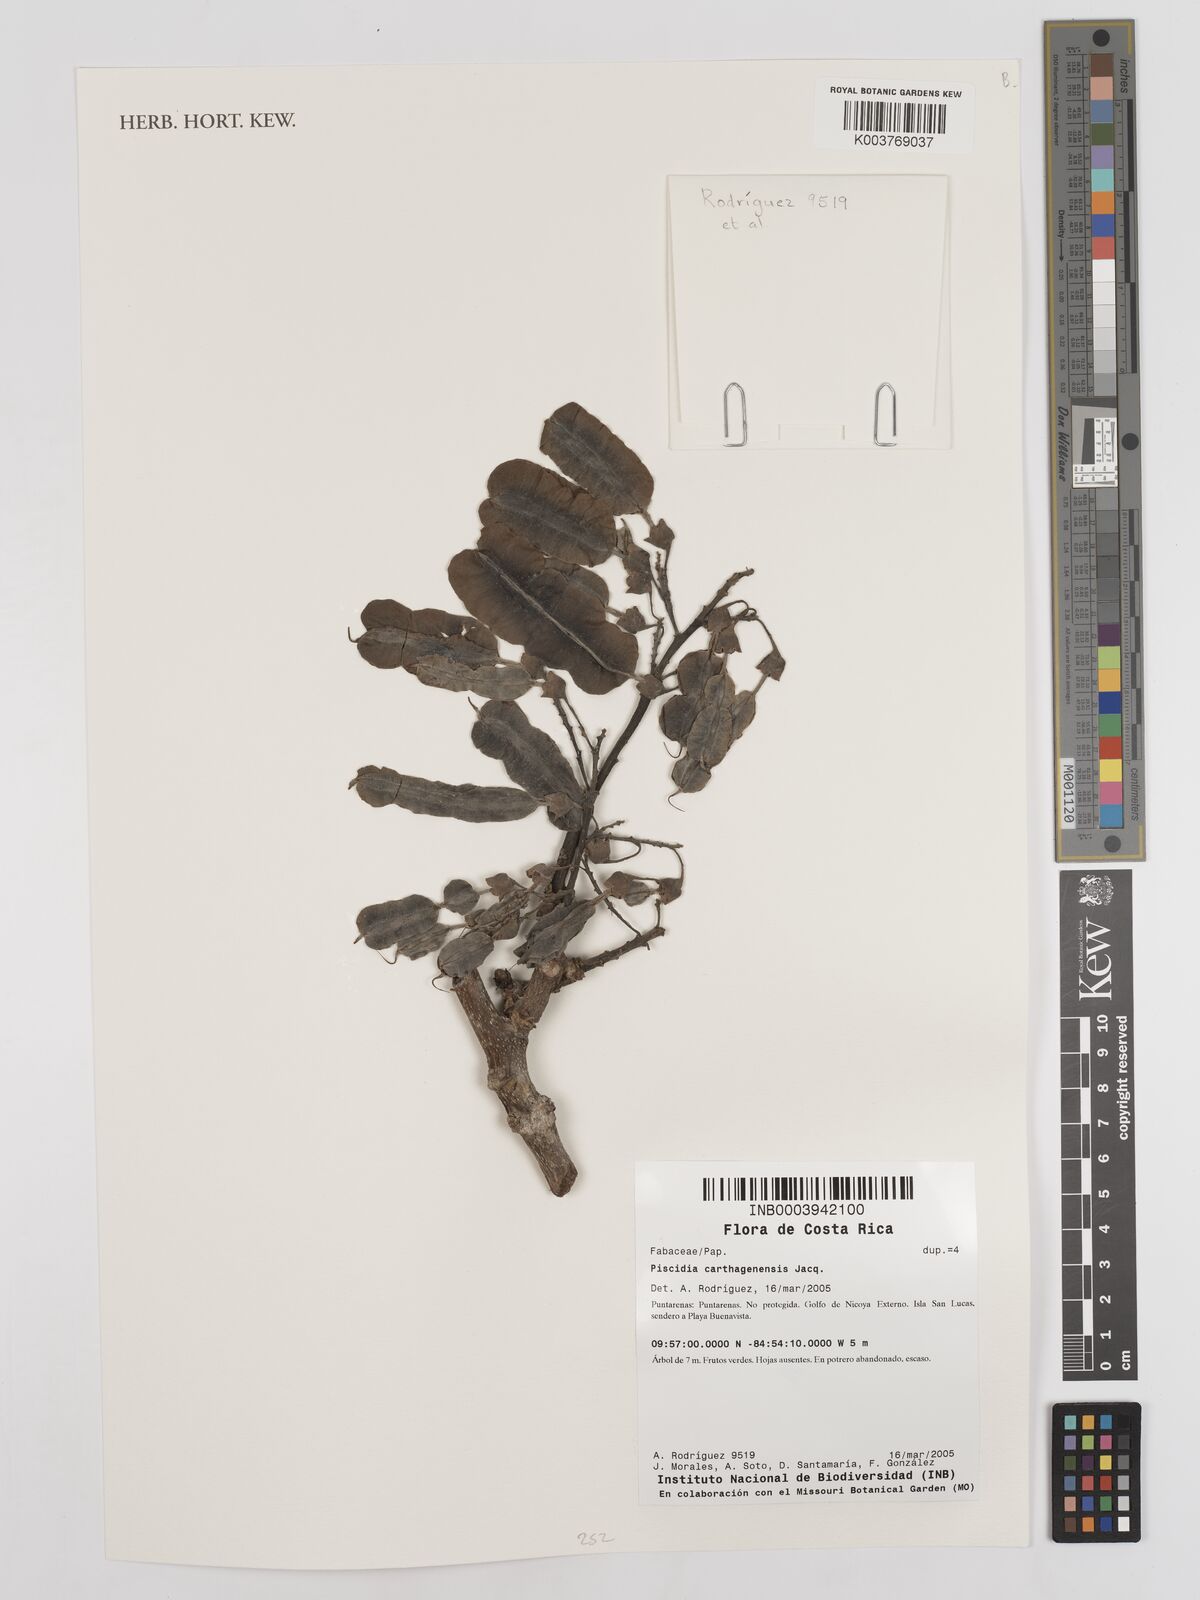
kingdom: Plantae
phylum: Tracheophyta
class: Magnoliopsida
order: Fabales
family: Fabaceae
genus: Piscidia
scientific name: Piscidia carthagenensis
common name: Stinkwood
